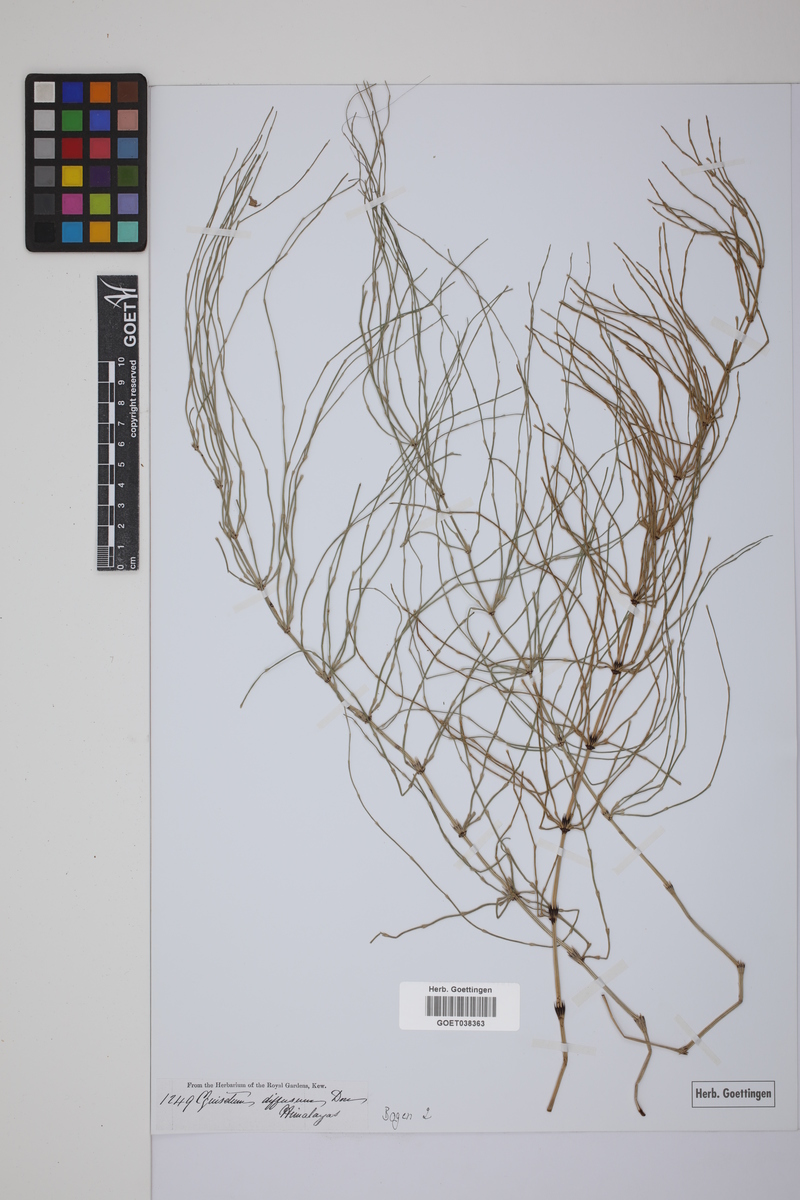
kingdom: Plantae
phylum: Tracheophyta
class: Polypodiopsida
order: Equisetales
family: Equisetaceae
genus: Equisetum
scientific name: Equisetum arvense
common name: Field horsetail
